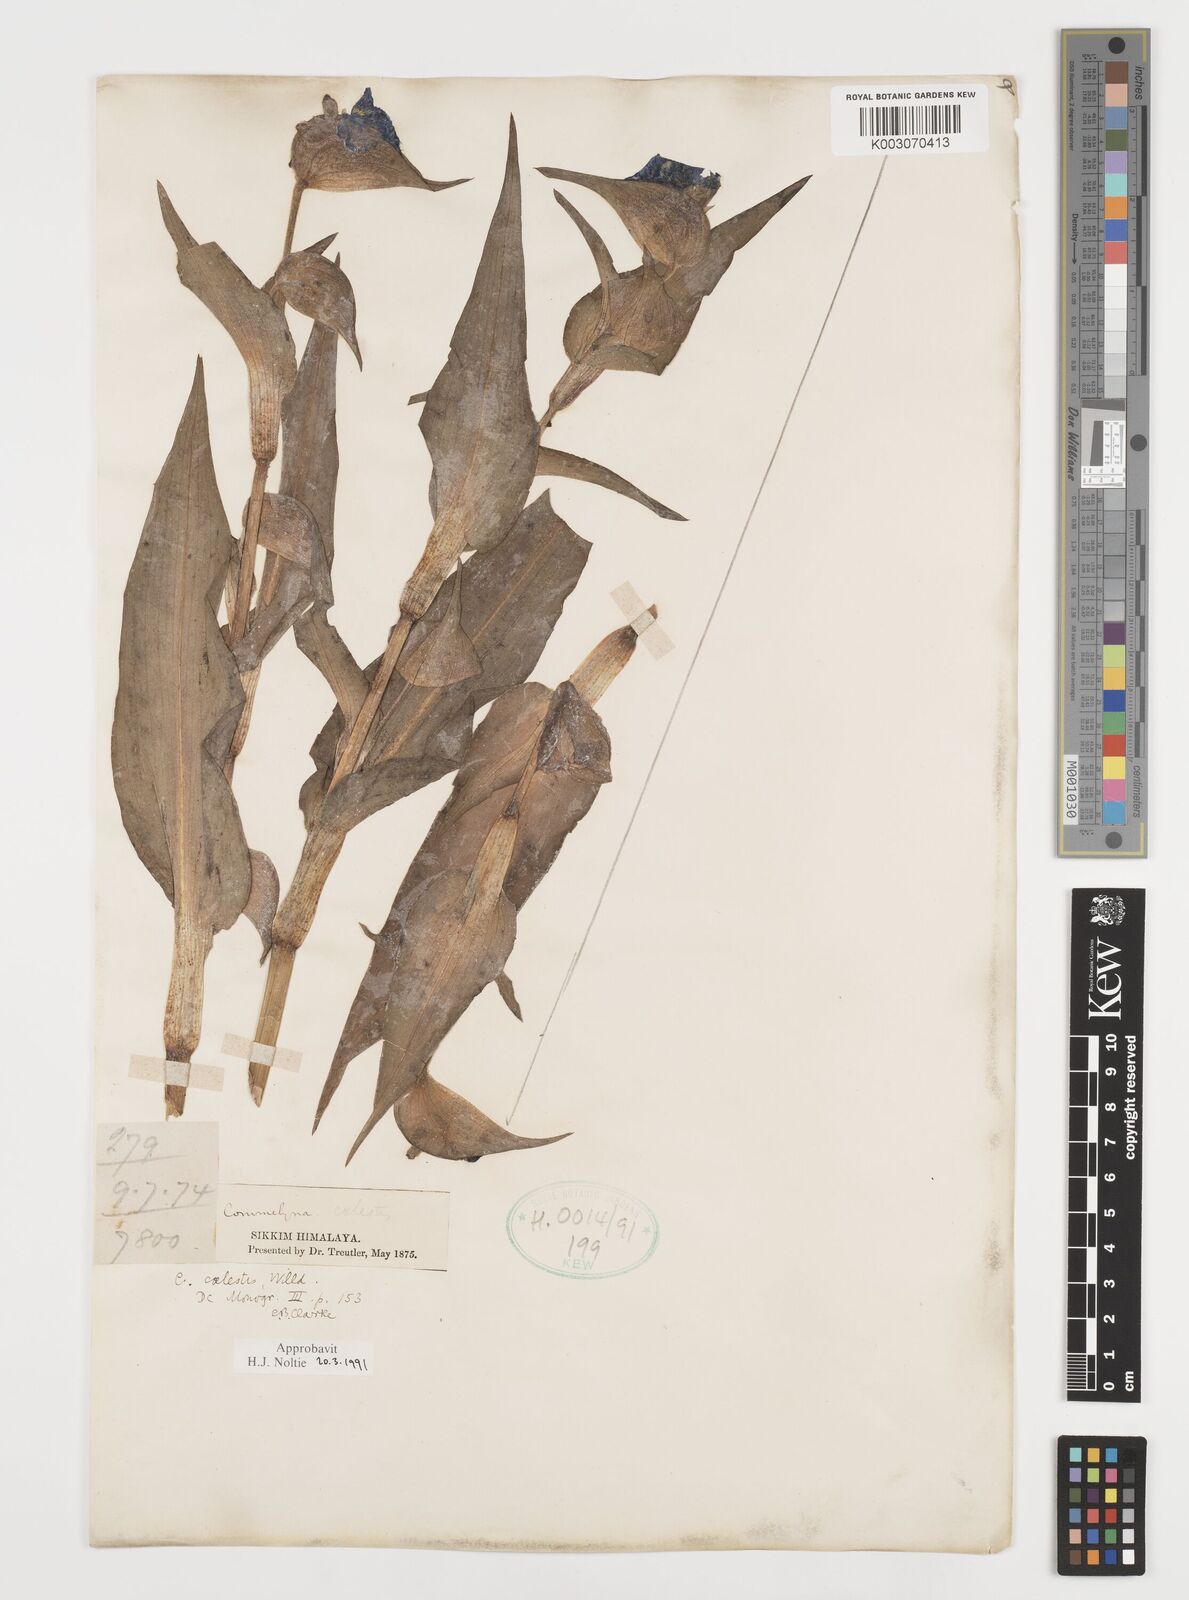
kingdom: Plantae
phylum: Tracheophyta
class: Liliopsida
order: Commelinales
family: Commelinaceae
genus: Commelina
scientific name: Commelina tuberosa
